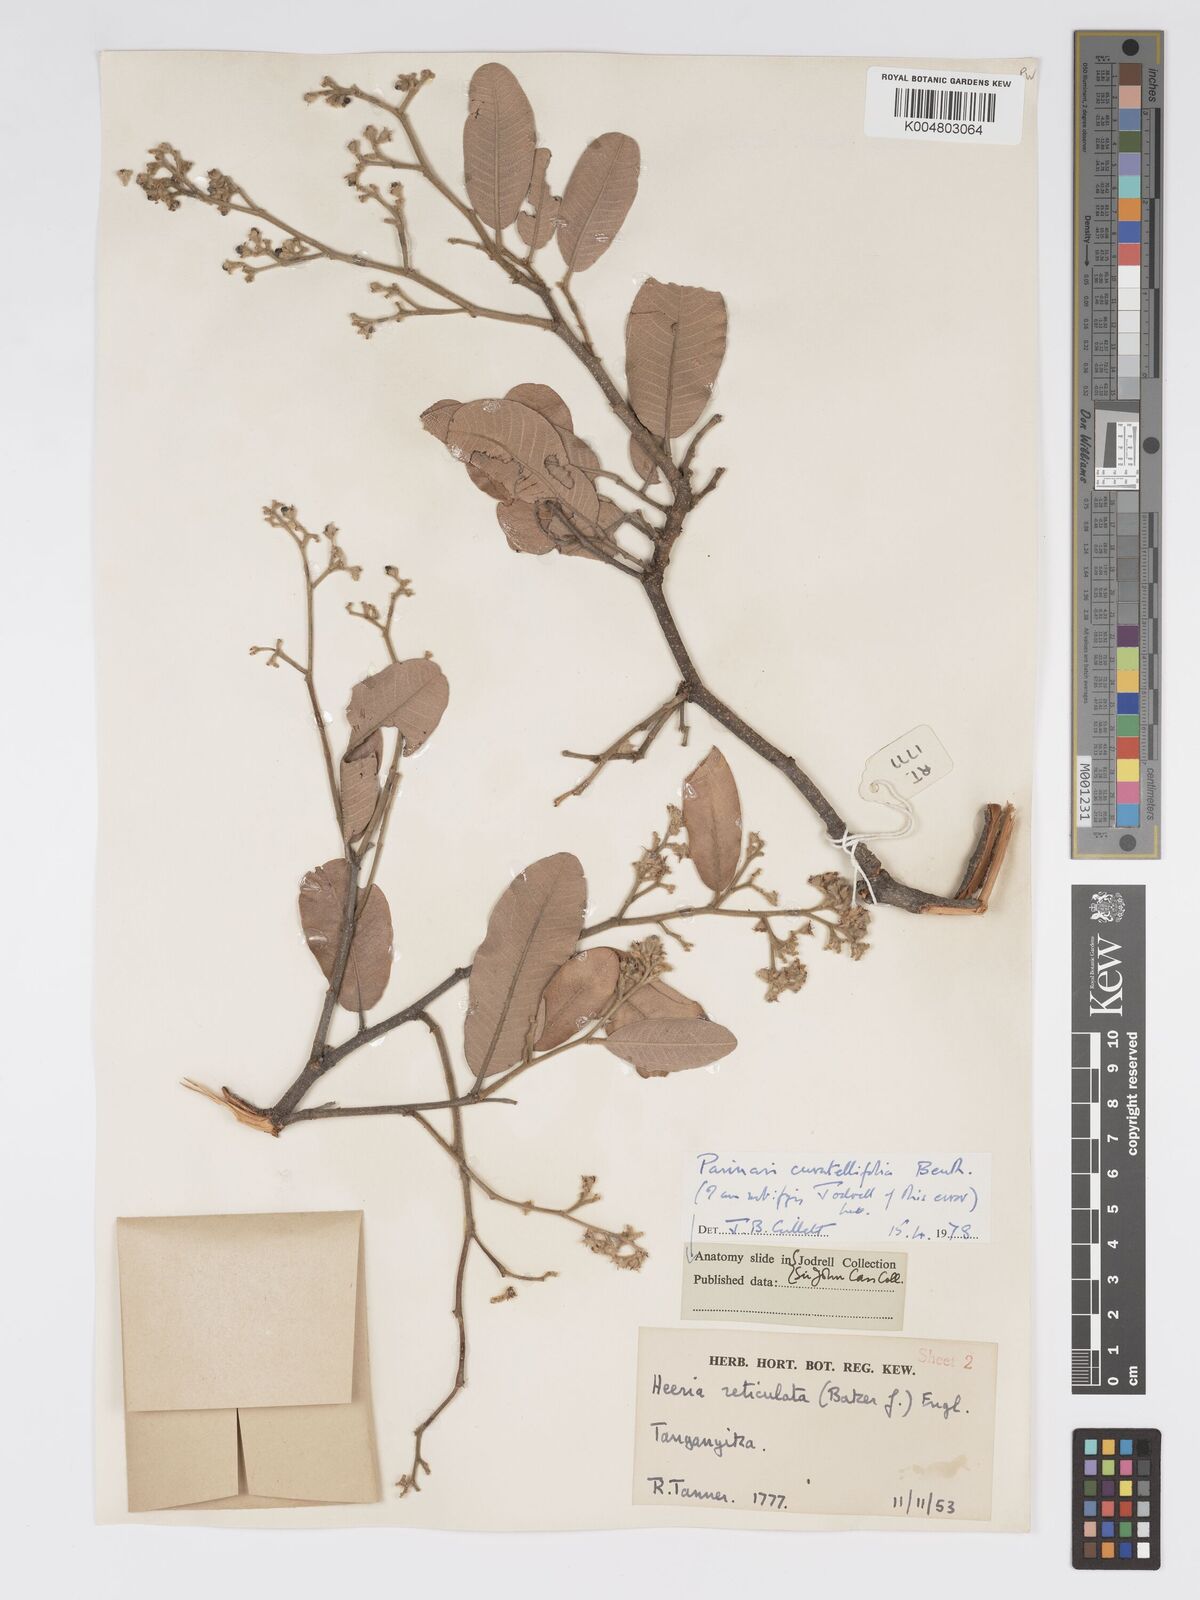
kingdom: Plantae
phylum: Tracheophyta
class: Magnoliopsida
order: Malpighiales
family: Chrysobalanaceae
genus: Parinari
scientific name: Parinari curatellifolia
